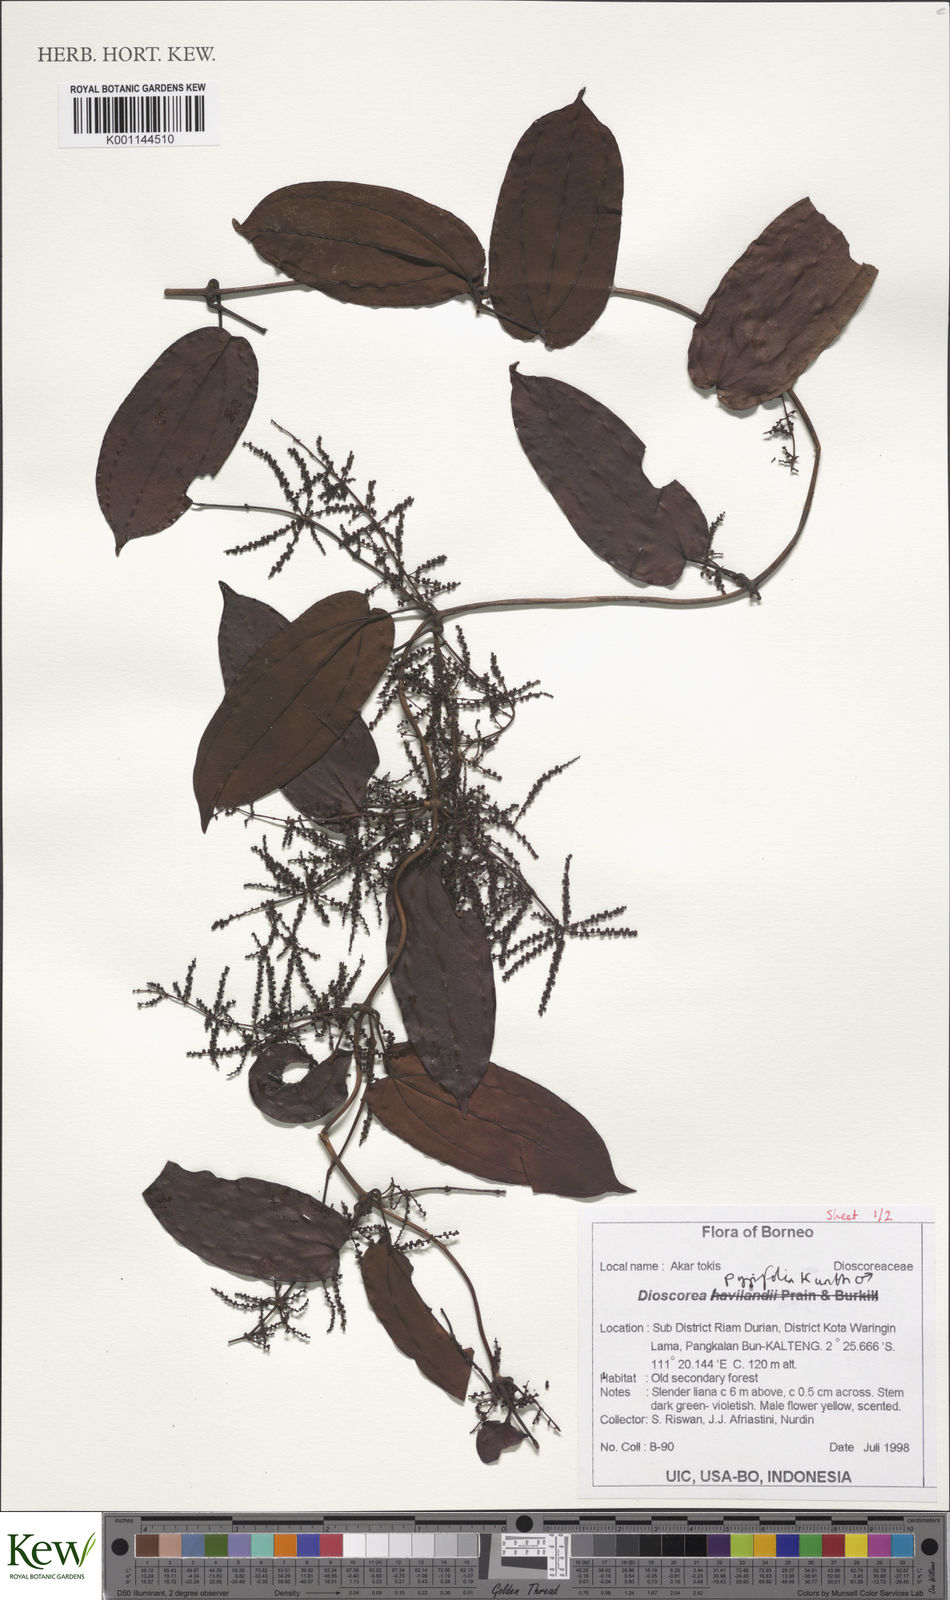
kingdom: Plantae
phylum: Tracheophyta
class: Liliopsida
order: Dioscoreales
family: Dioscoreaceae
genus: Dioscorea
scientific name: Dioscorea pyrifolia
